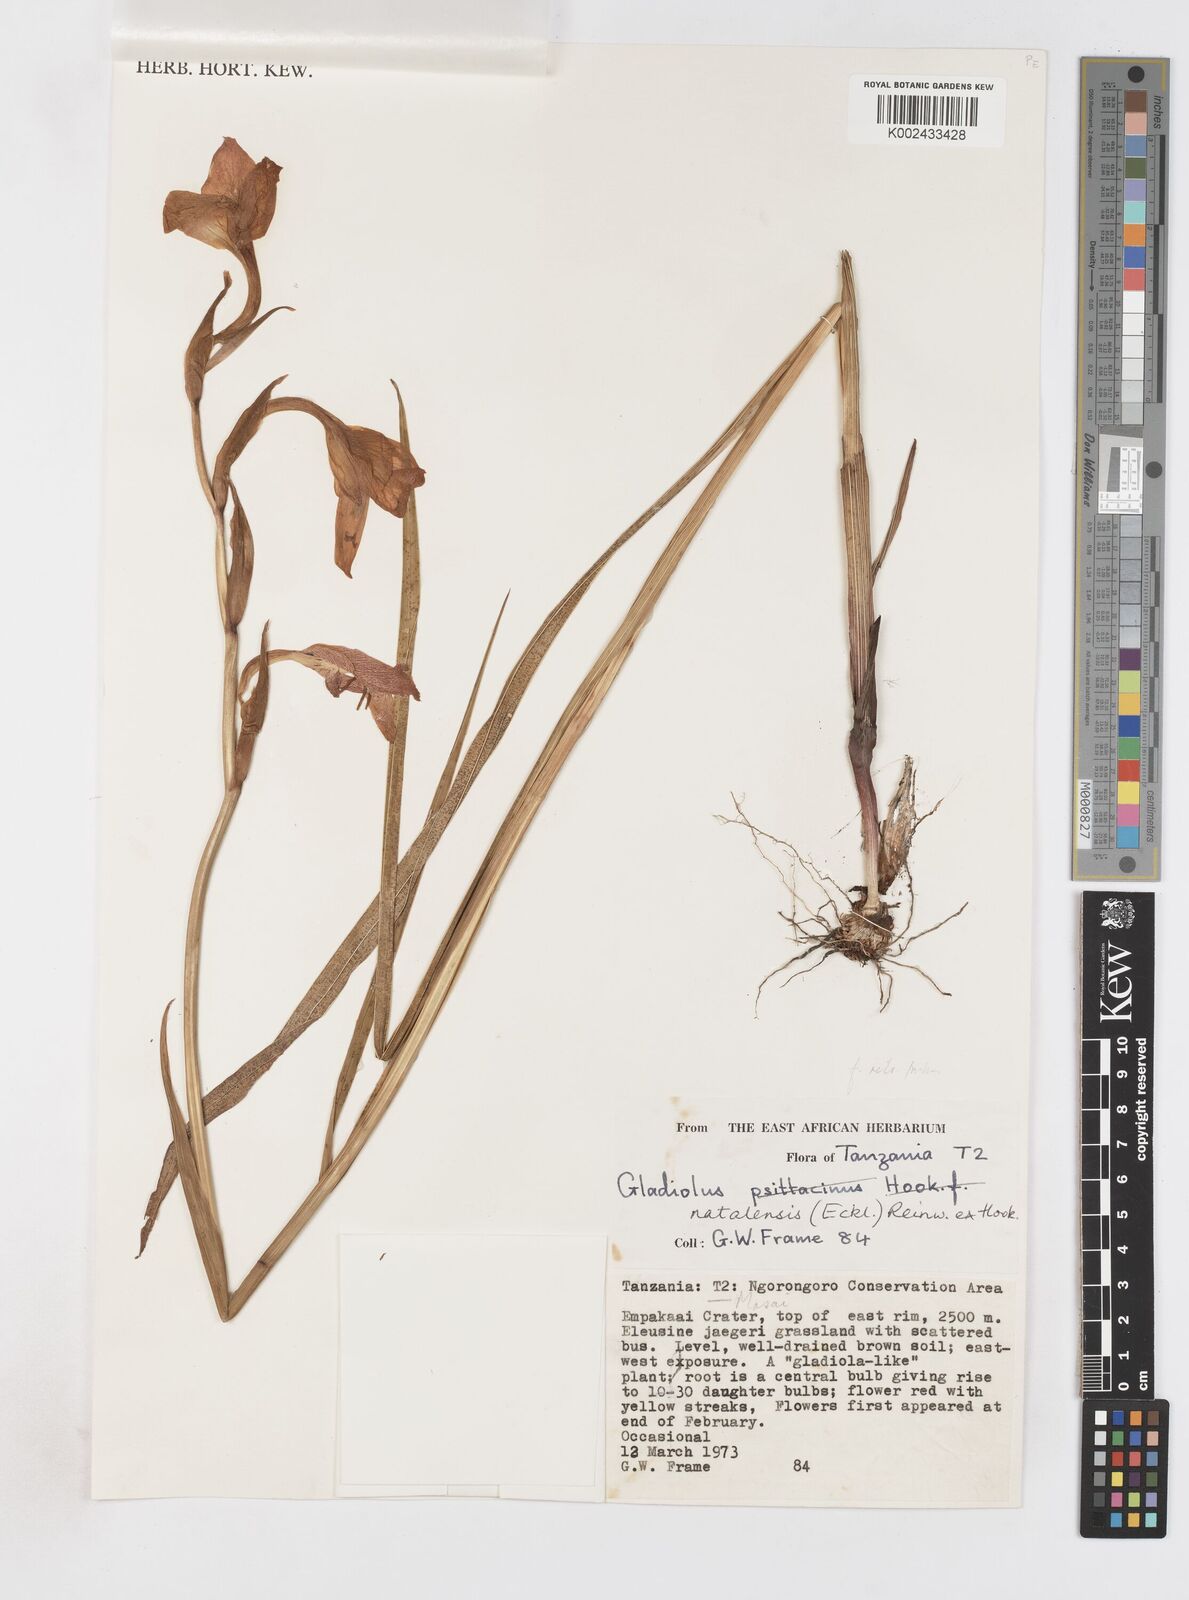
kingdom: Plantae
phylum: Tracheophyta
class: Liliopsida
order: Asparagales
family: Iridaceae
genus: Gladiolus
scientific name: Gladiolus dalenii
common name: Cornflag
